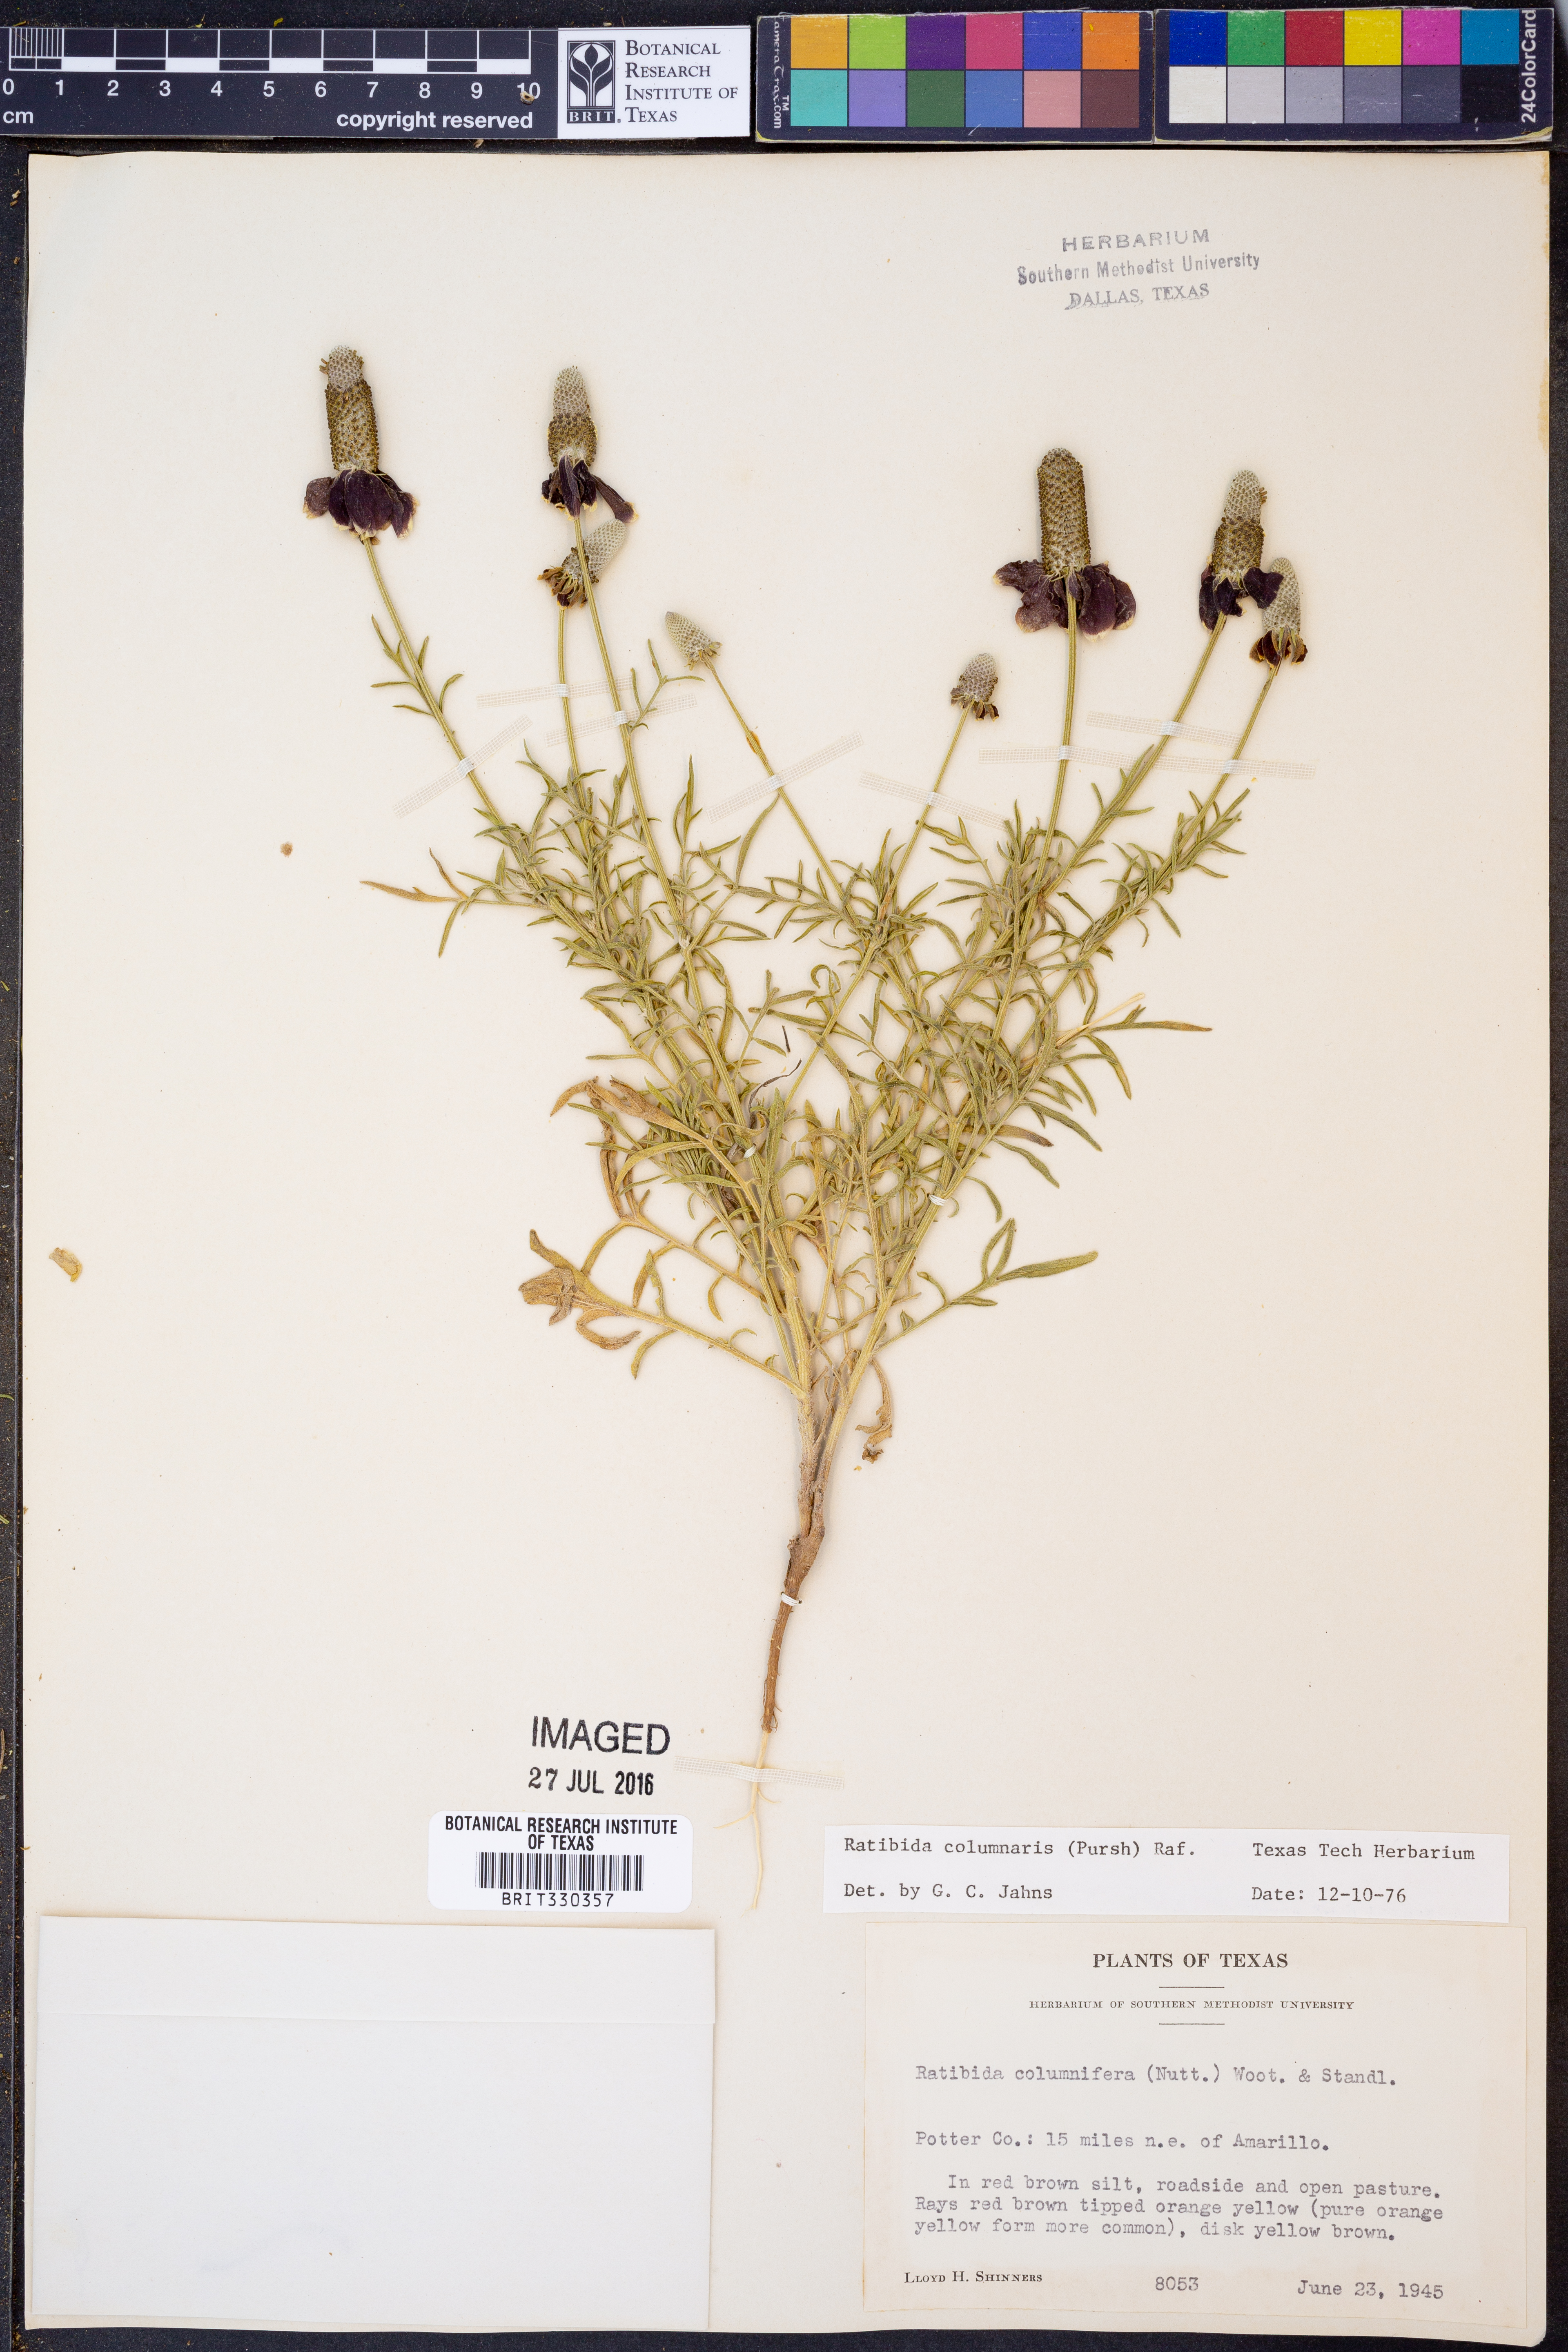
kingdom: Plantae
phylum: Tracheophyta
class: Magnoliopsida
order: Asterales
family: Asteraceae
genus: Ratibida
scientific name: Ratibida columnifera
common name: Prairie coneflower
